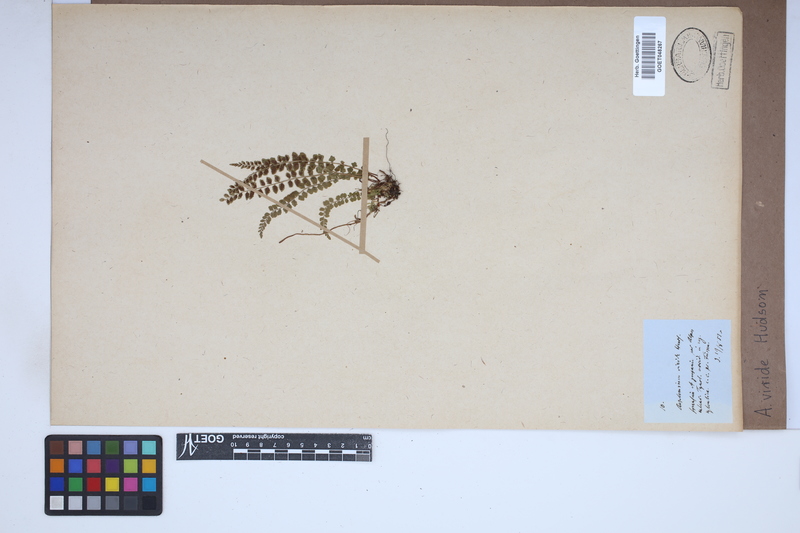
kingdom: Plantae
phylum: Tracheophyta
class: Polypodiopsida
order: Polypodiales
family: Aspleniaceae
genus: Asplenium
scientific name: Asplenium viride
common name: Green spleenwort
